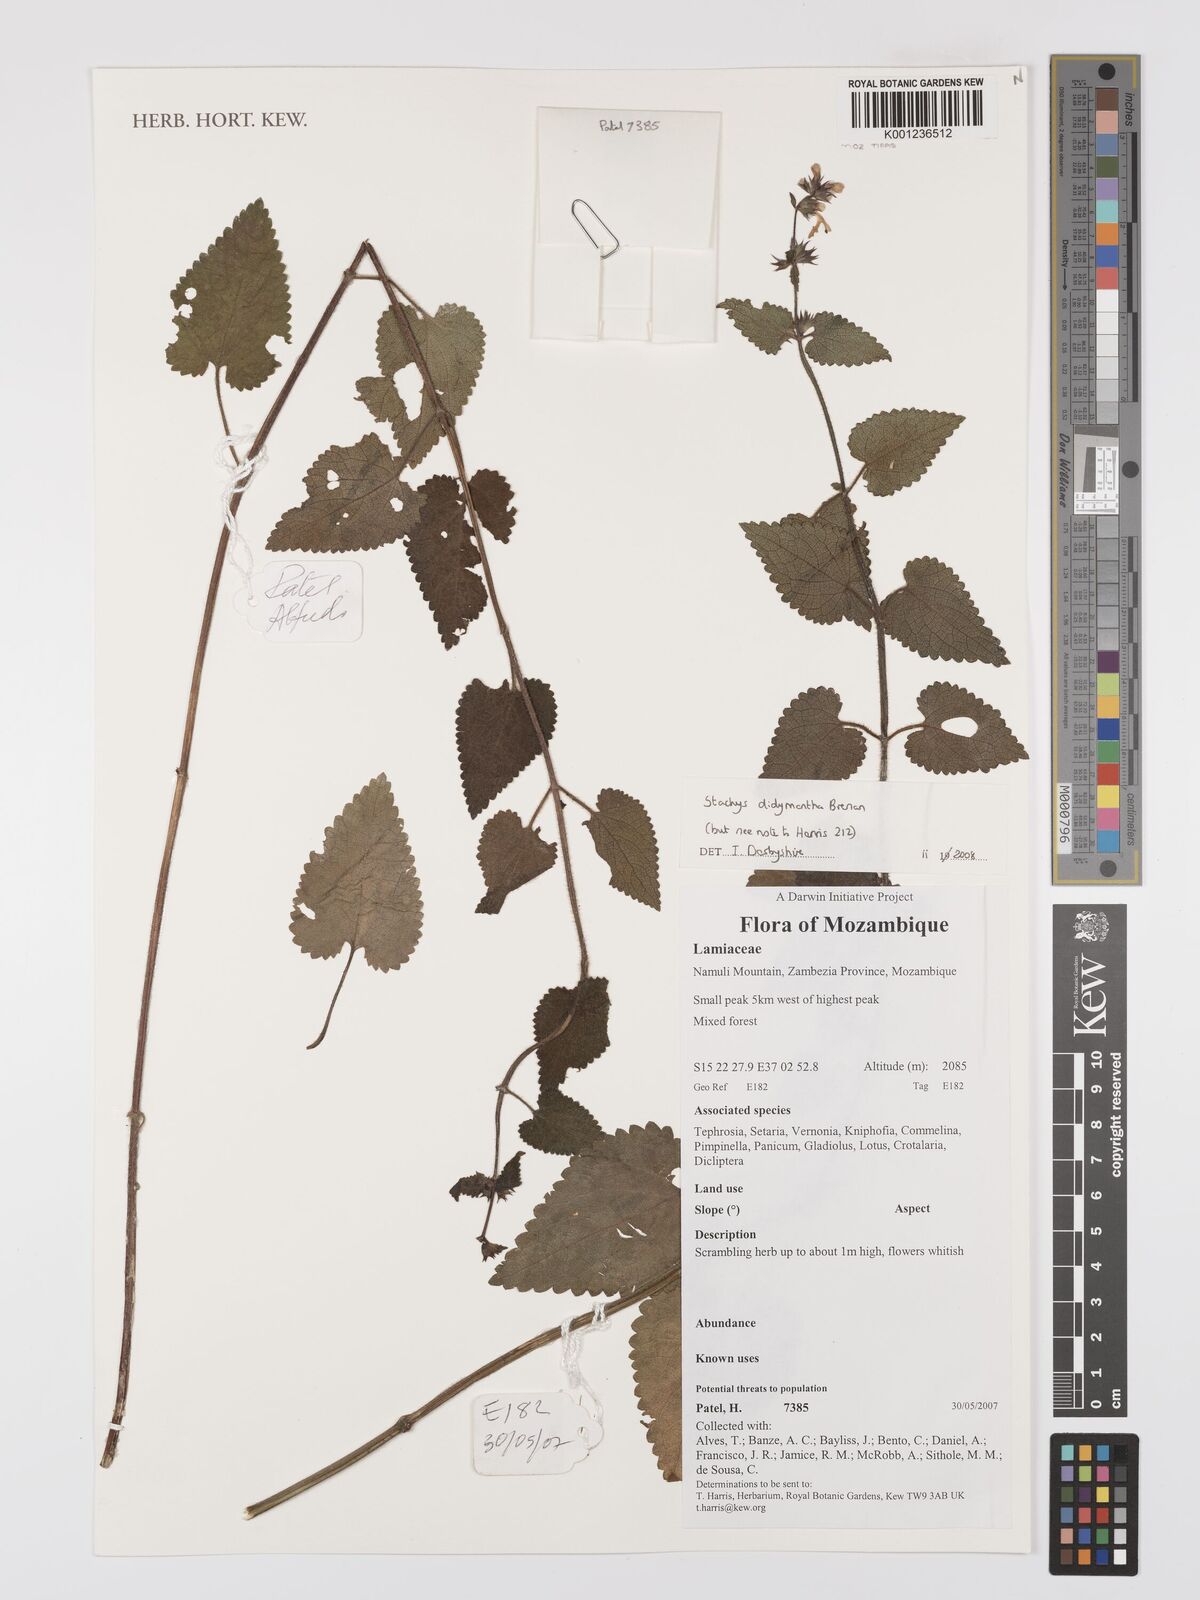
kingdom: Plantae
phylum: Tracheophyta
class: Magnoliopsida
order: Lamiales
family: Lamiaceae
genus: Stachys
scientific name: Stachys didymantha
